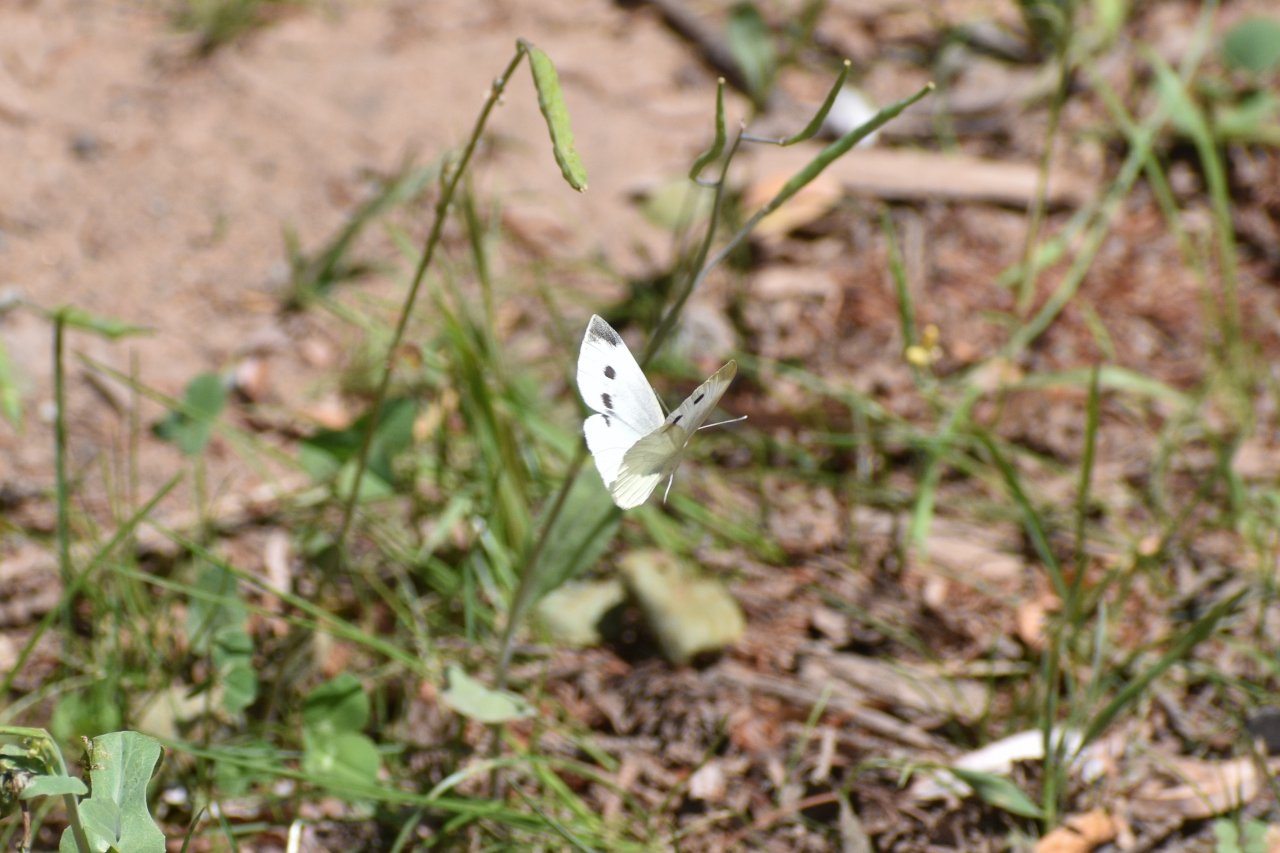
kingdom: Animalia
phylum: Arthropoda
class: Insecta
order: Lepidoptera
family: Pieridae
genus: Pieris
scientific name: Pieris rapae
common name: Cabbage White
